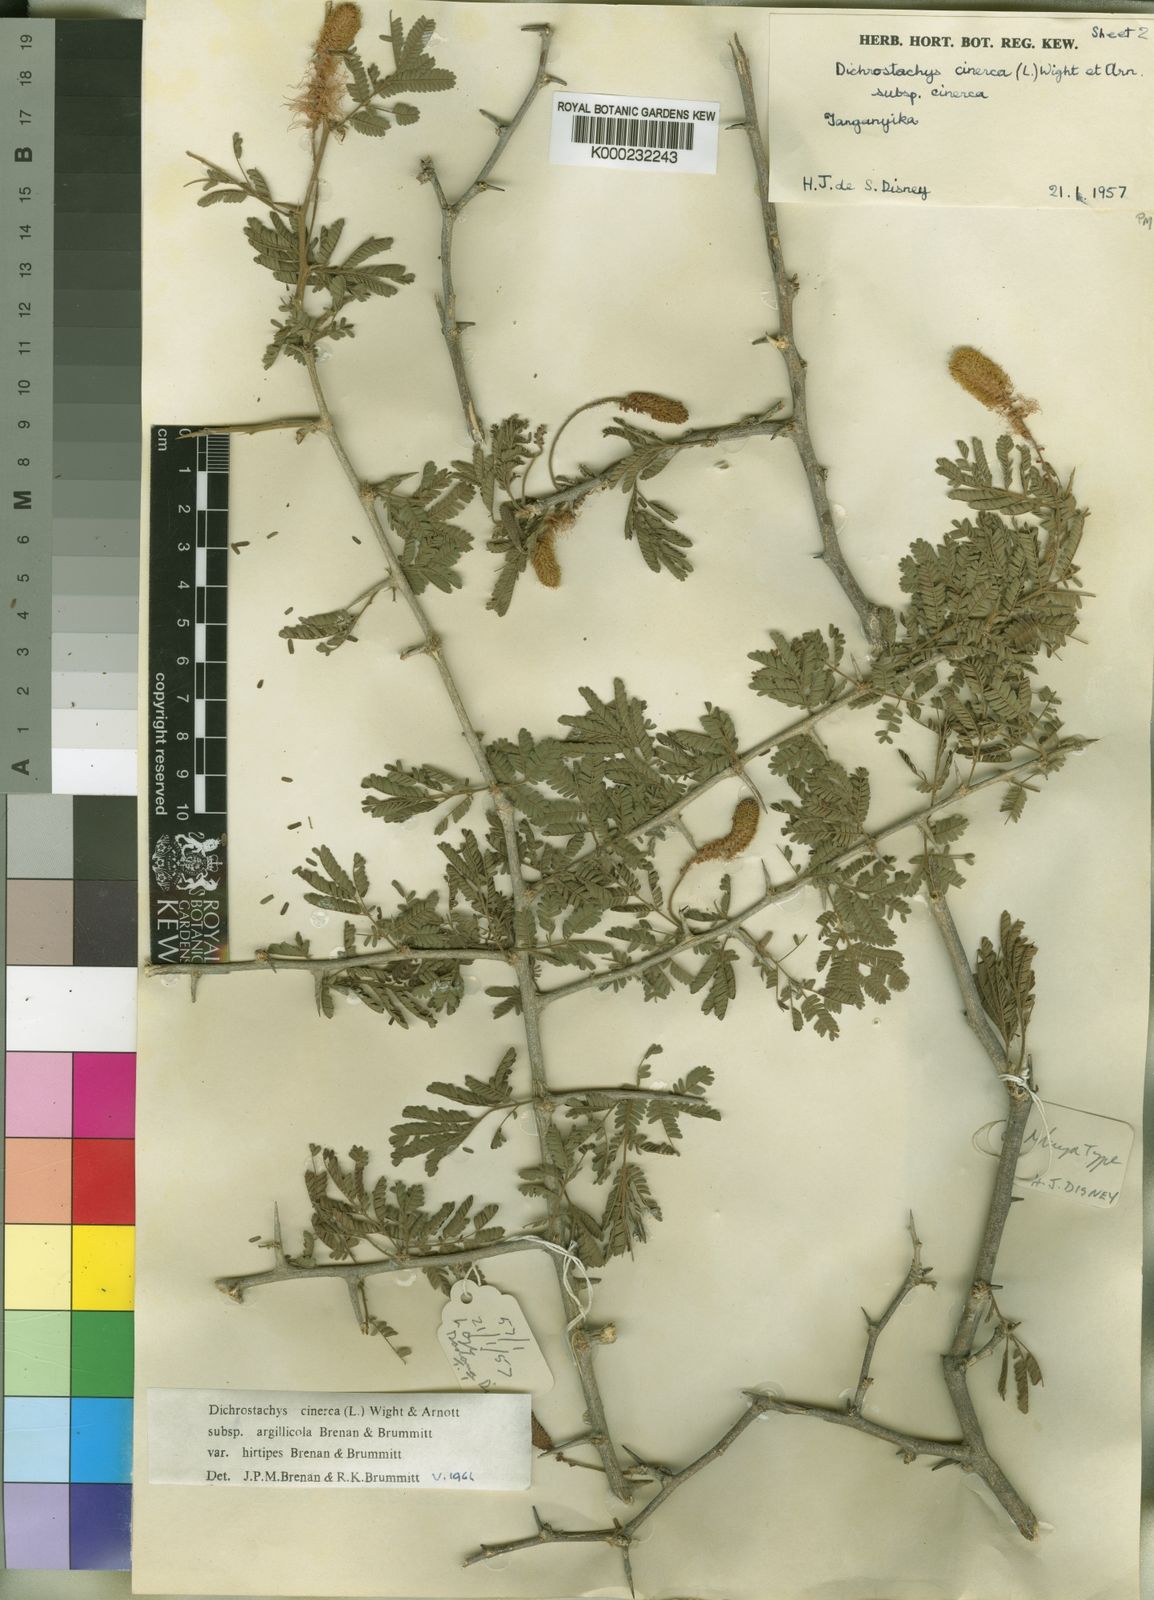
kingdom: Plantae
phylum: Tracheophyta
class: Magnoliopsida
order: Fabales
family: Fabaceae
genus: Dichrostachys
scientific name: Dichrostachys cinerea
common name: Sicklebush
